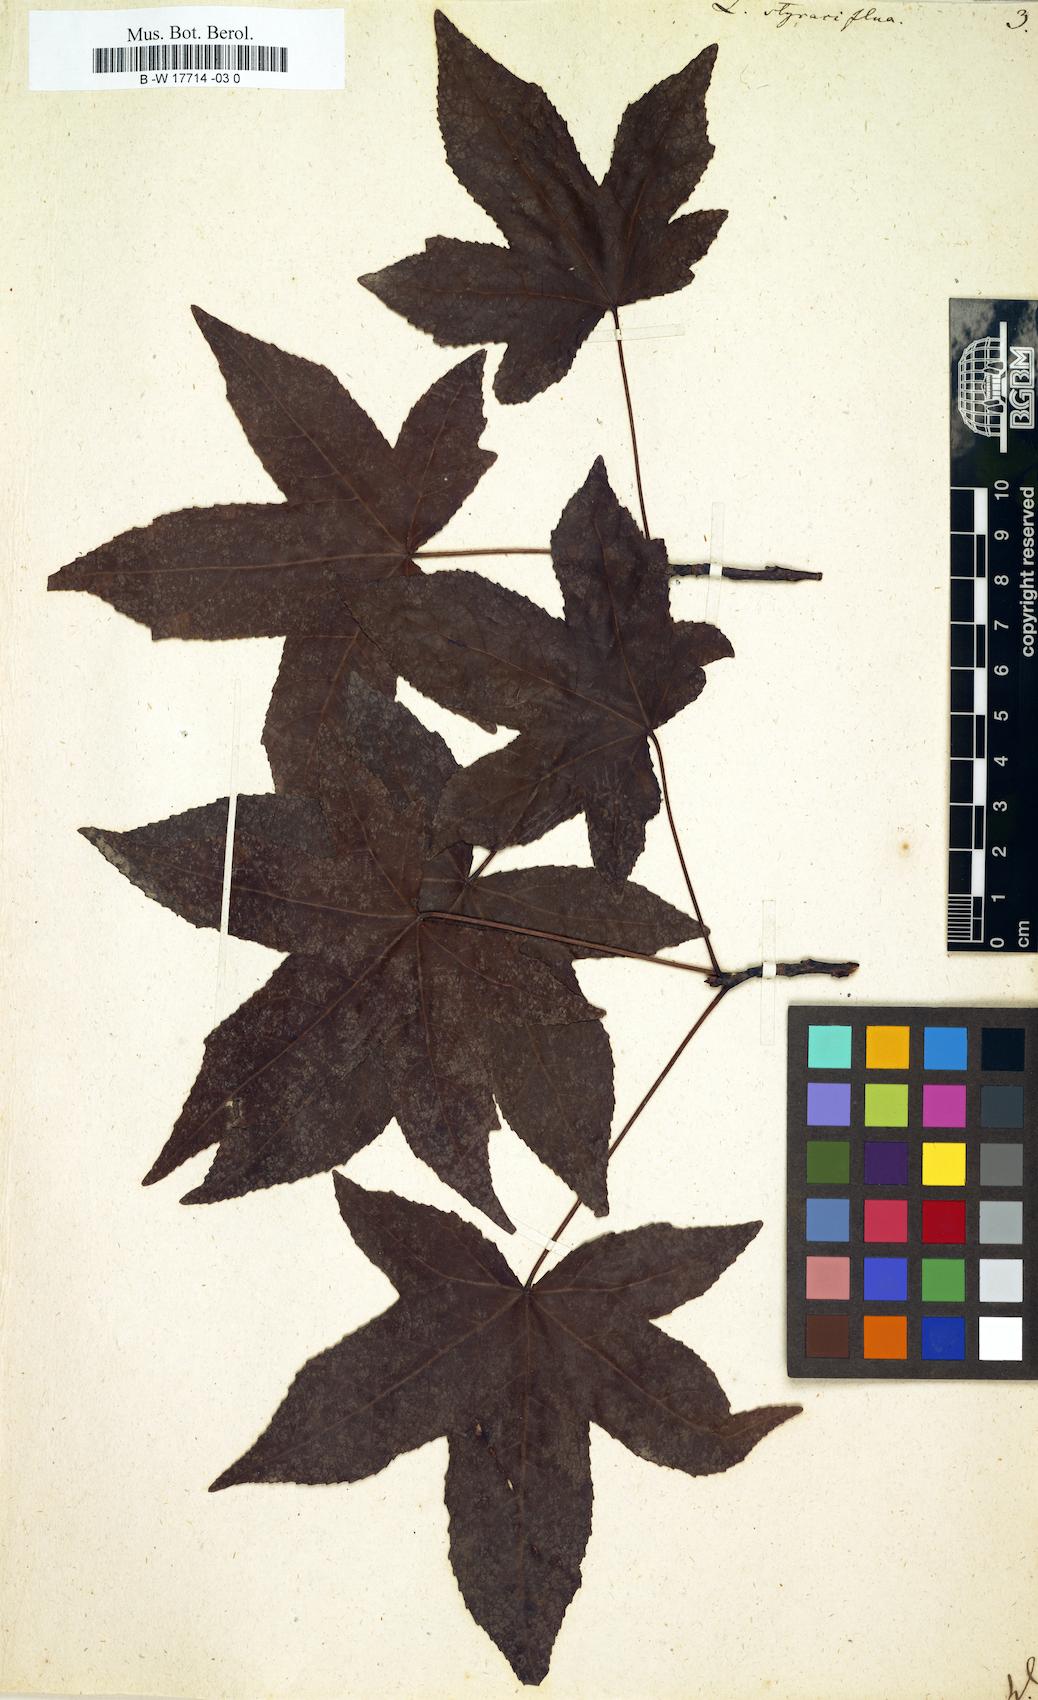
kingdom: Plantae
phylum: Tracheophyta
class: Magnoliopsida
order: Saxifragales
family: Altingiaceae
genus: Liquidambar
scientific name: Liquidambar styraciflua
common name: Sweet gum
